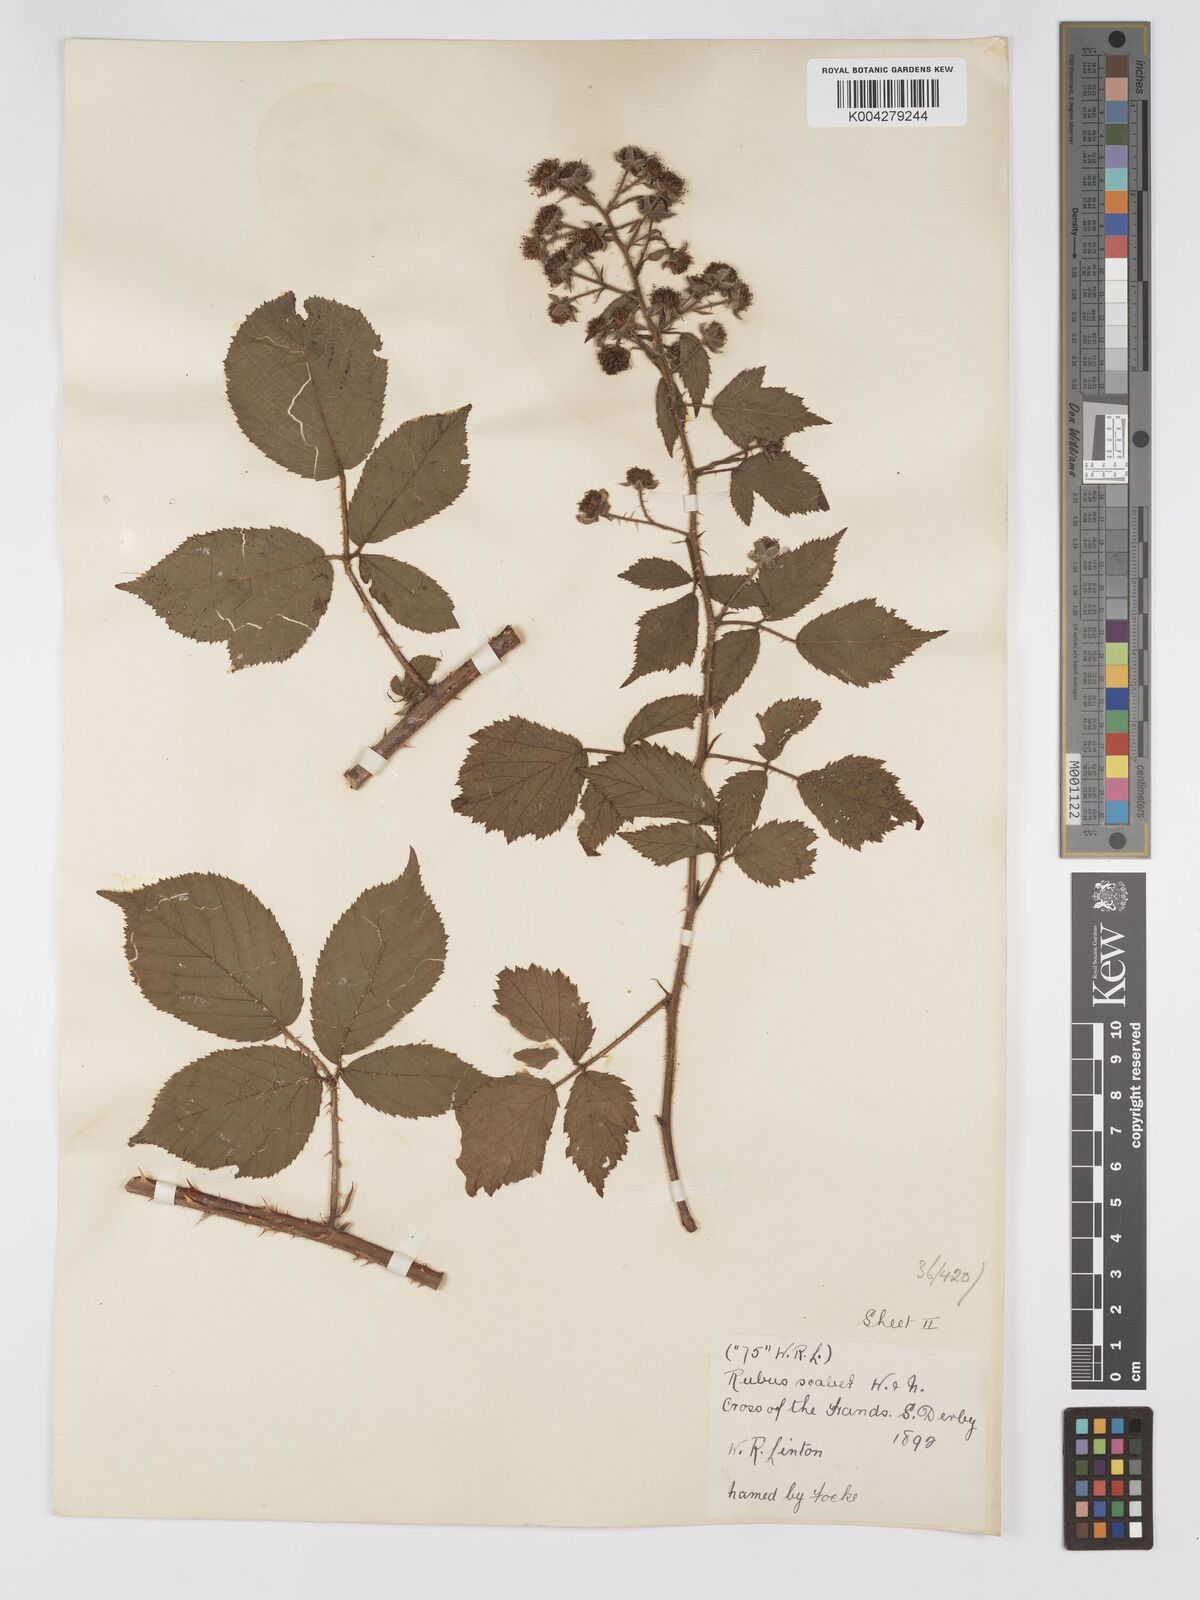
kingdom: Plantae
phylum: Tracheophyta
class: Magnoliopsida
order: Rosales
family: Rosaceae
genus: Rubus
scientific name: Rubus scaber
